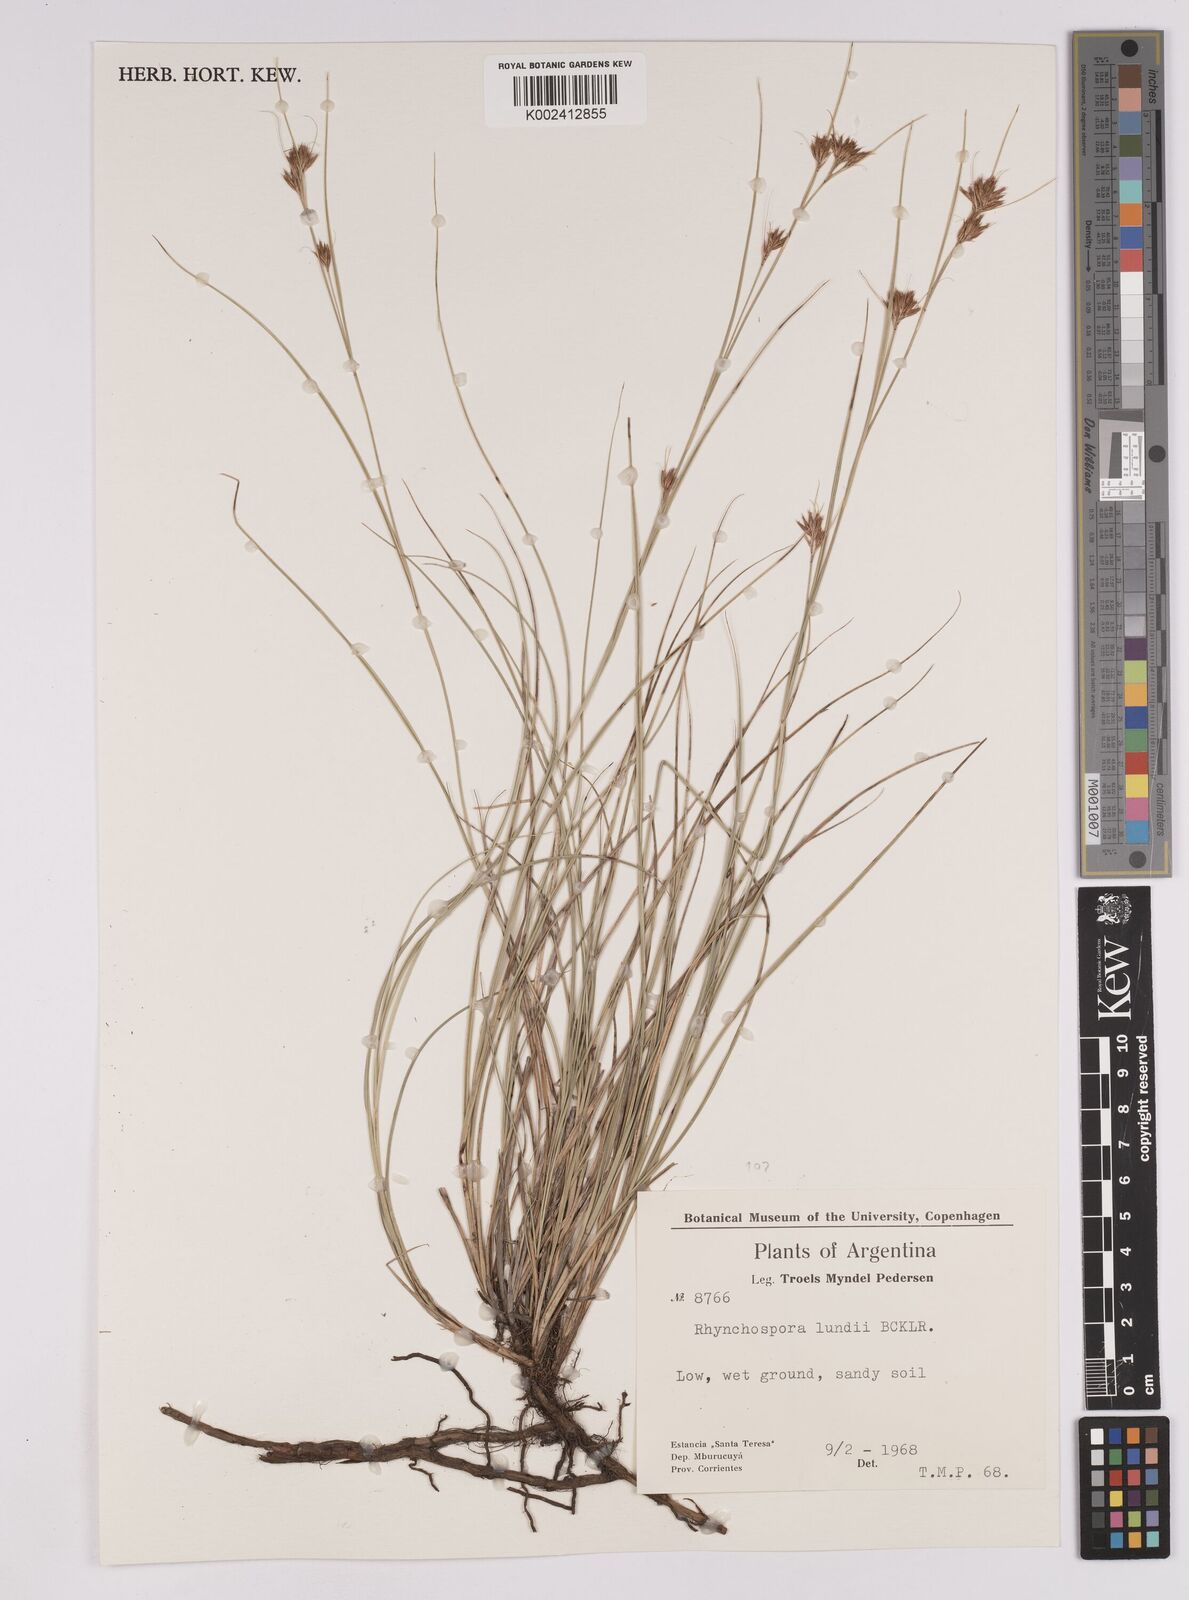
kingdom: Plantae
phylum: Tracheophyta
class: Liliopsida
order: Poales
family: Cyperaceae
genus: Rhynchospora
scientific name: Rhynchospora confinis
